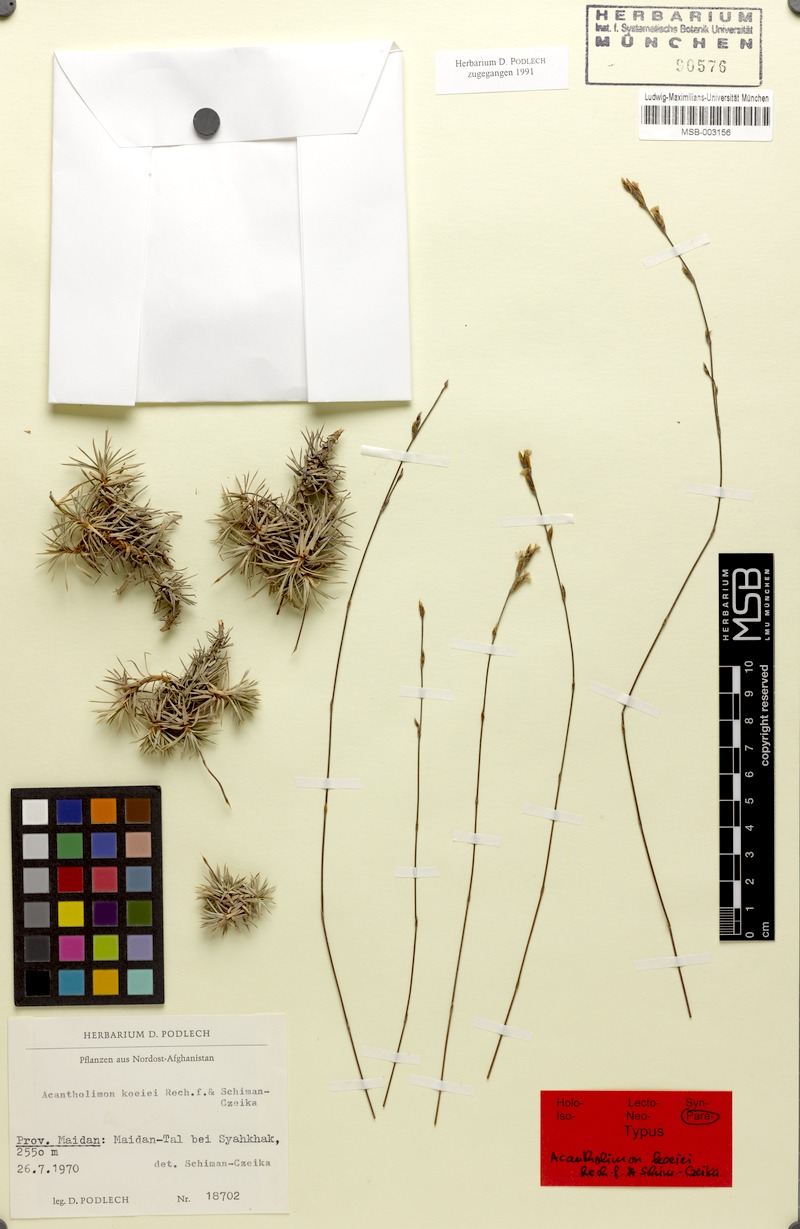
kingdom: Plantae
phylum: Tracheophyta
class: Magnoliopsida
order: Caryophyllales
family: Plumbaginaceae
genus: Acantholimon
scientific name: Acantholimon koeiei
